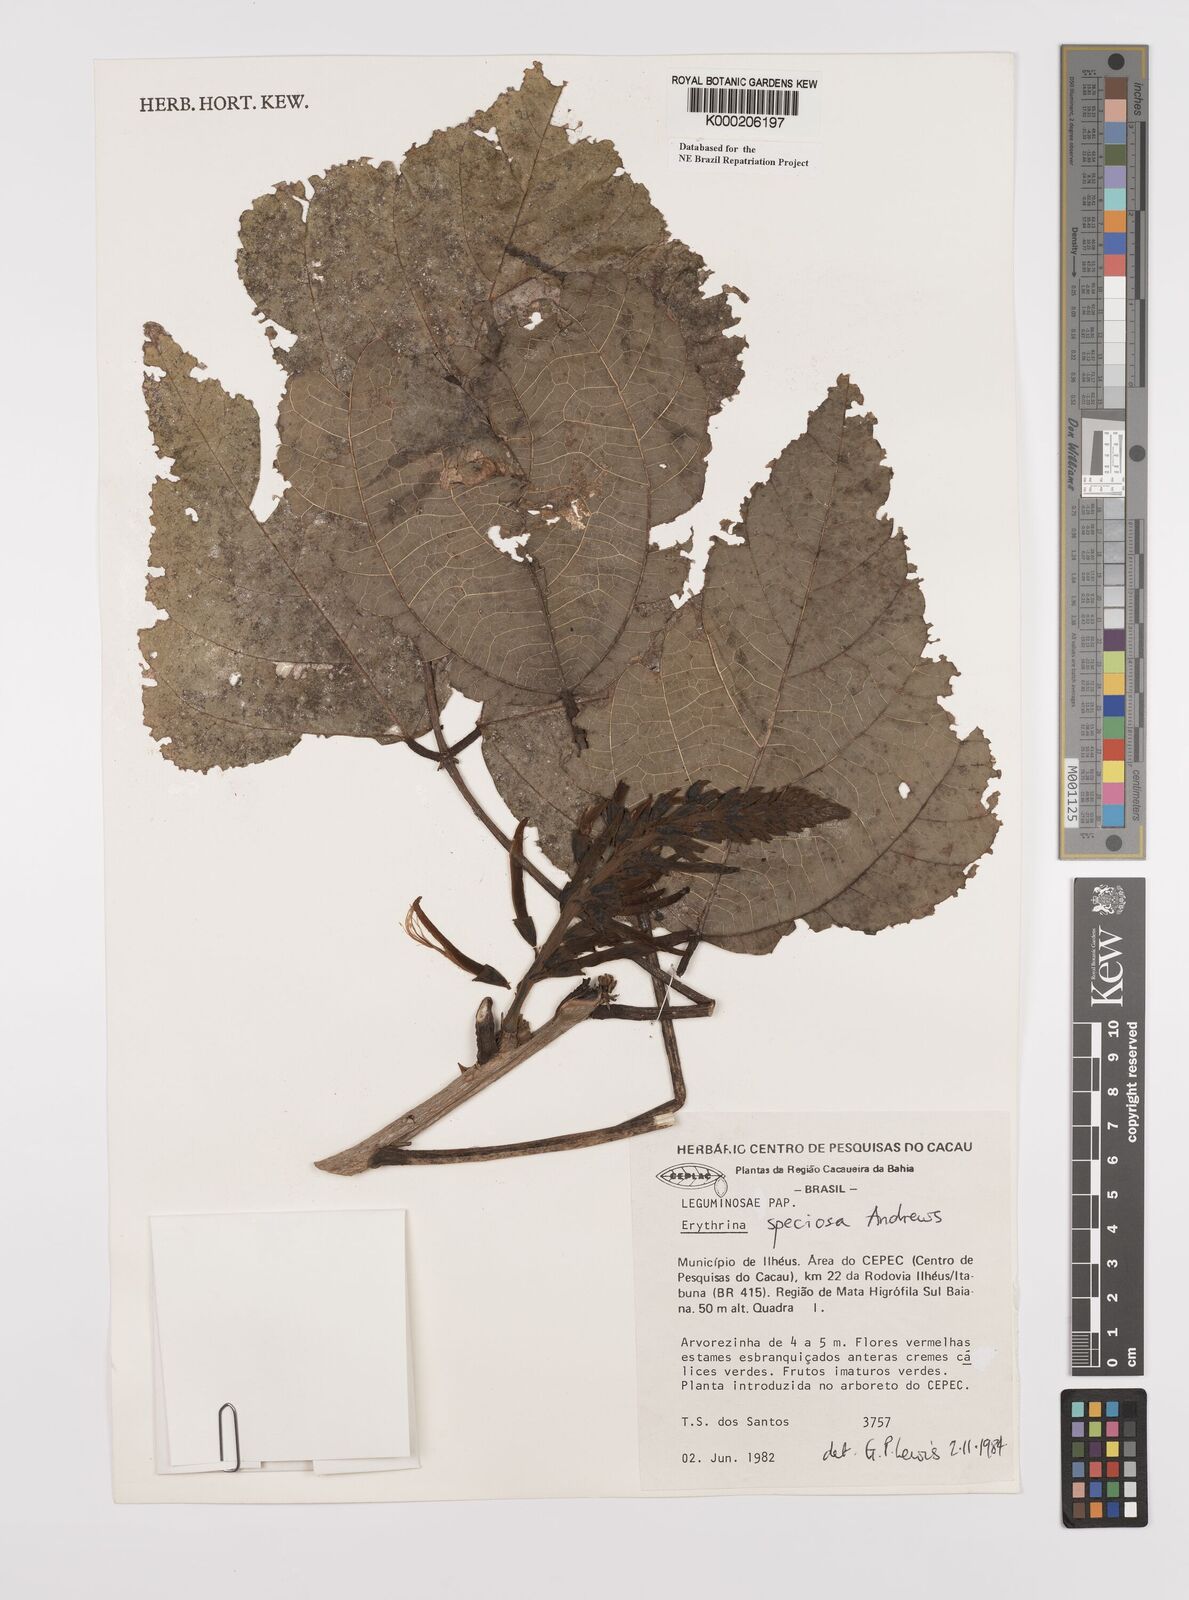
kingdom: Plantae
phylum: Tracheophyta
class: Magnoliopsida
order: Fabales
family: Fabaceae
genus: Erythrina
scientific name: Erythrina speciosa
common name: Coral tree
